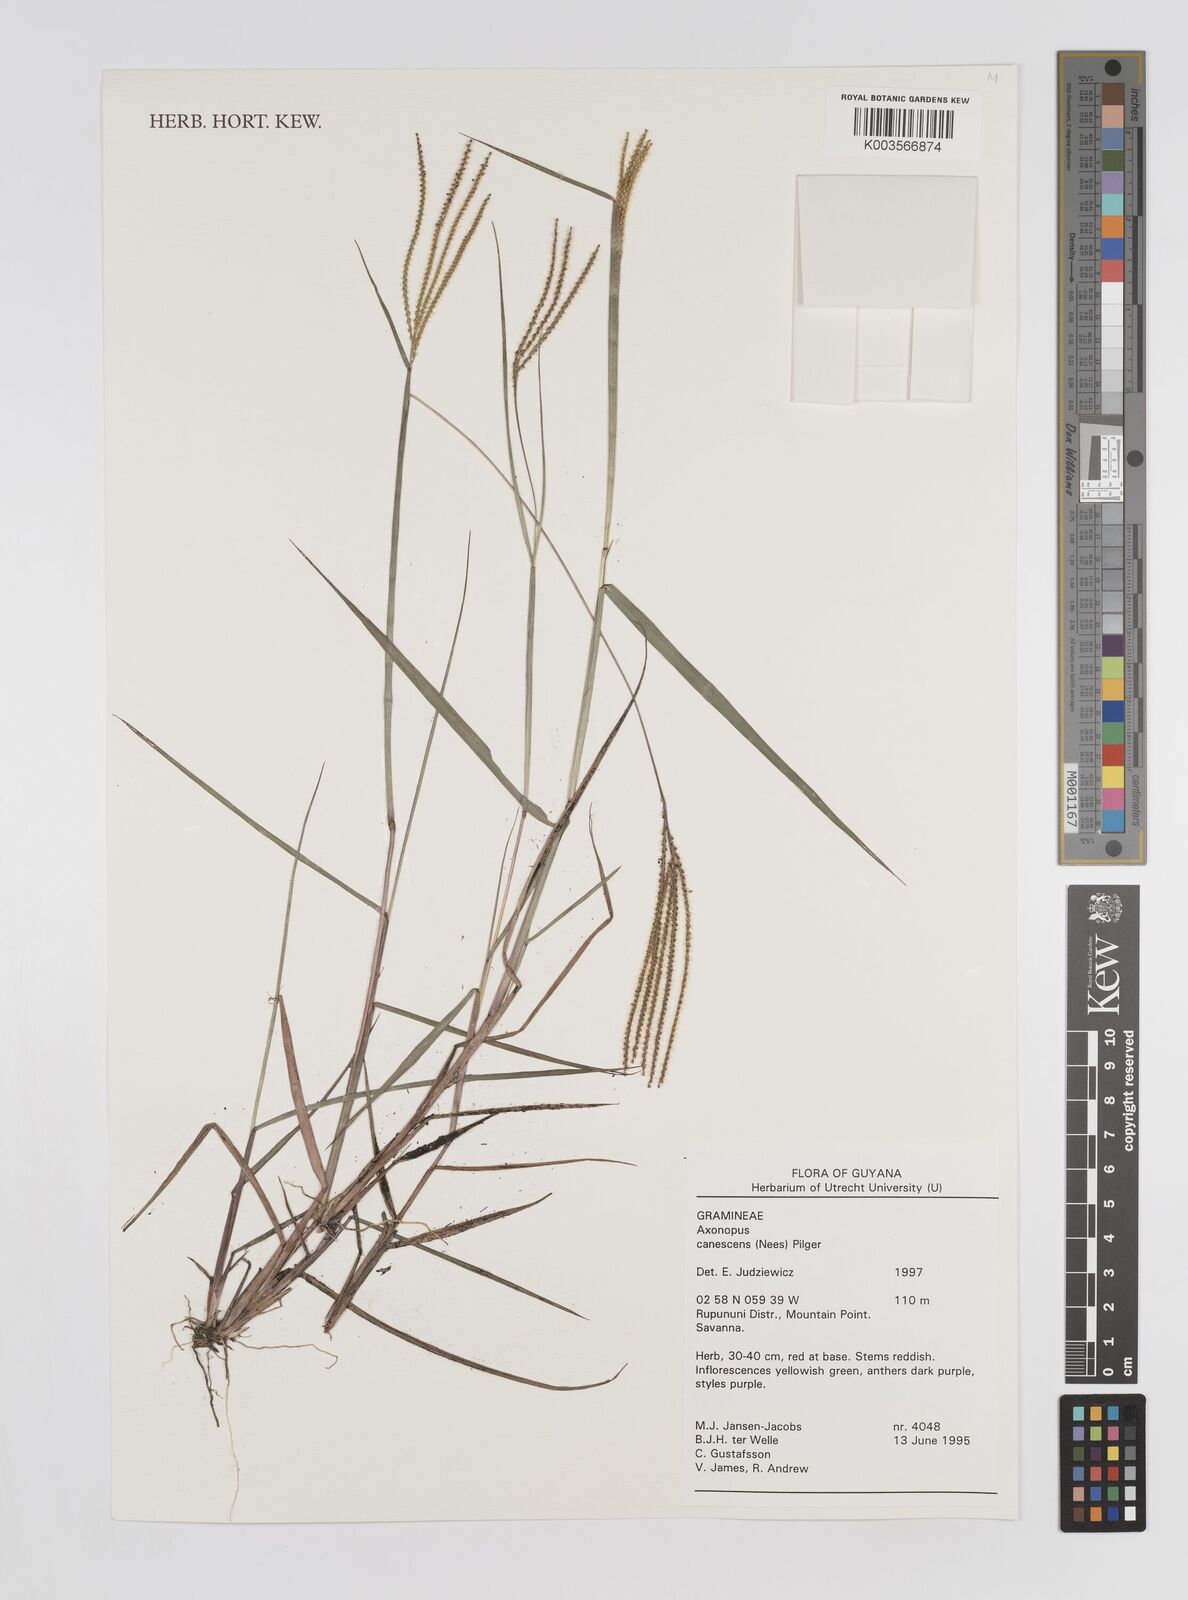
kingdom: Plantae
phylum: Tracheophyta
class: Liliopsida
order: Poales
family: Poaceae
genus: Axonopus
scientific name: Axonopus aureus
